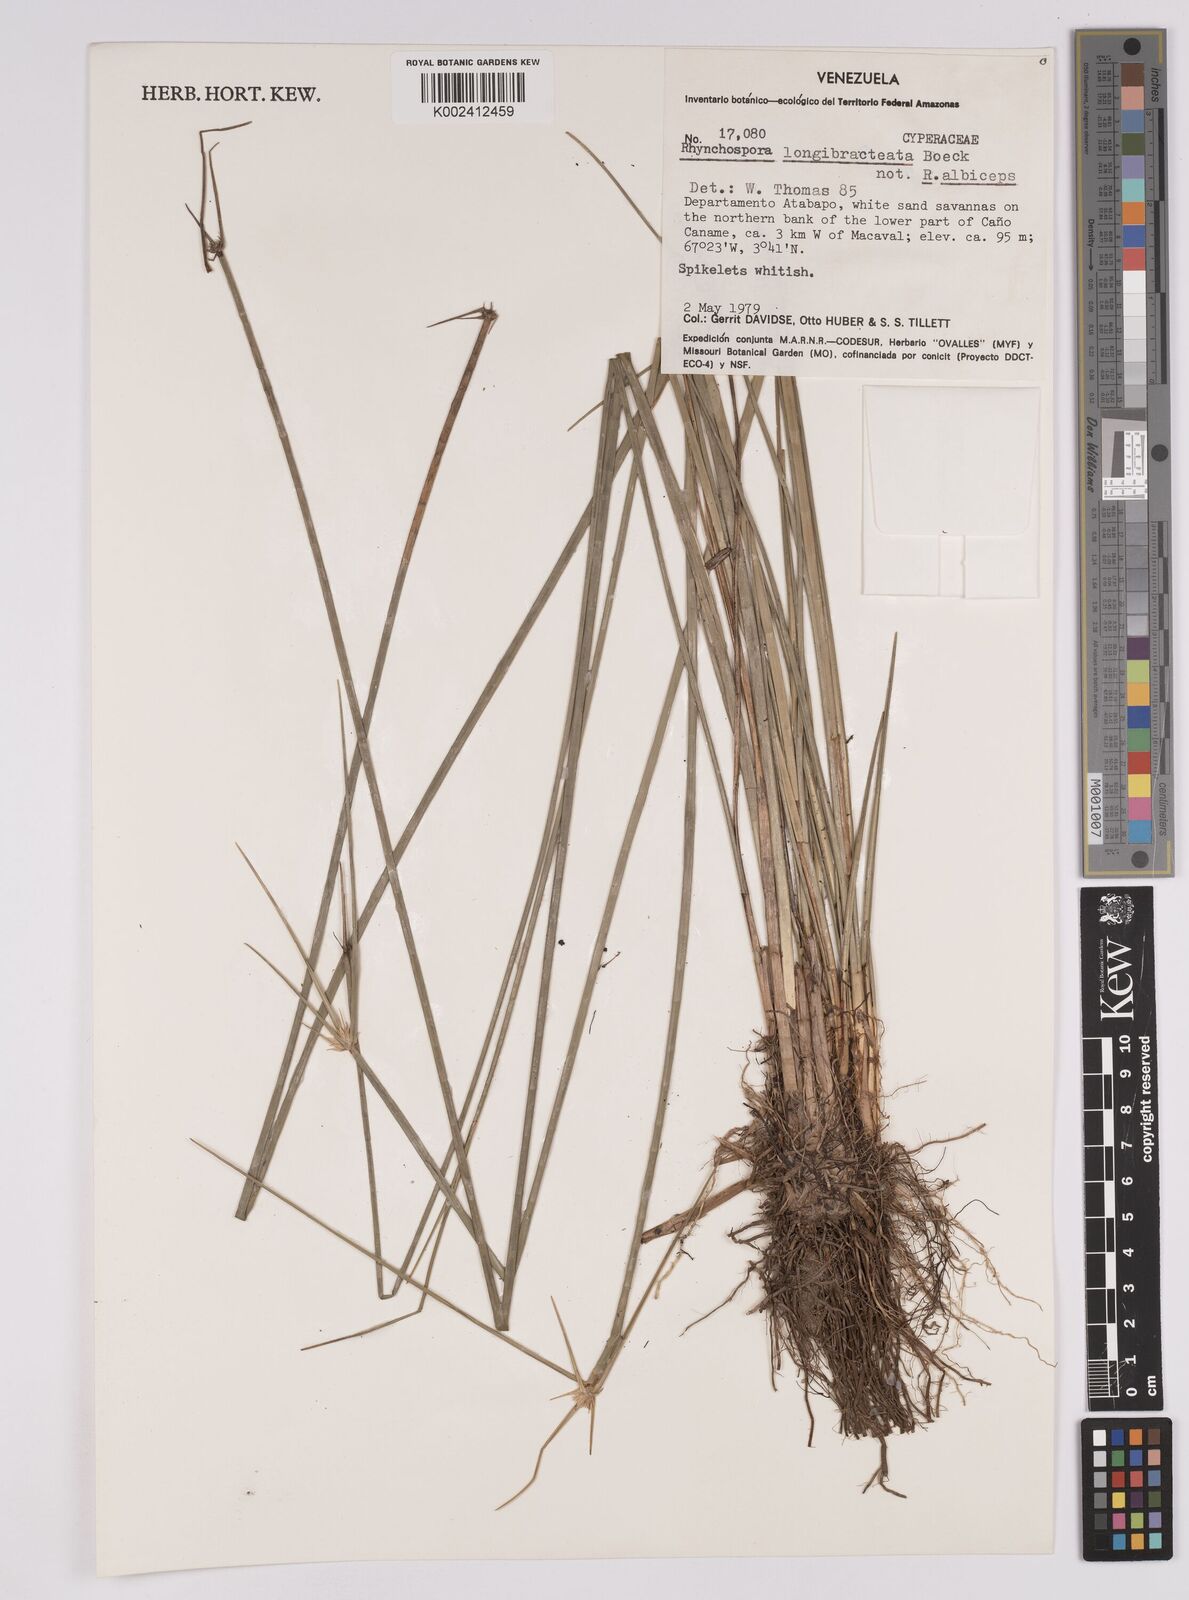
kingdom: Plantae
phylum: Tracheophyta
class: Liliopsida
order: Poales
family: Cyperaceae
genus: Rhynchospora
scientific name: Rhynchospora longibracteata
